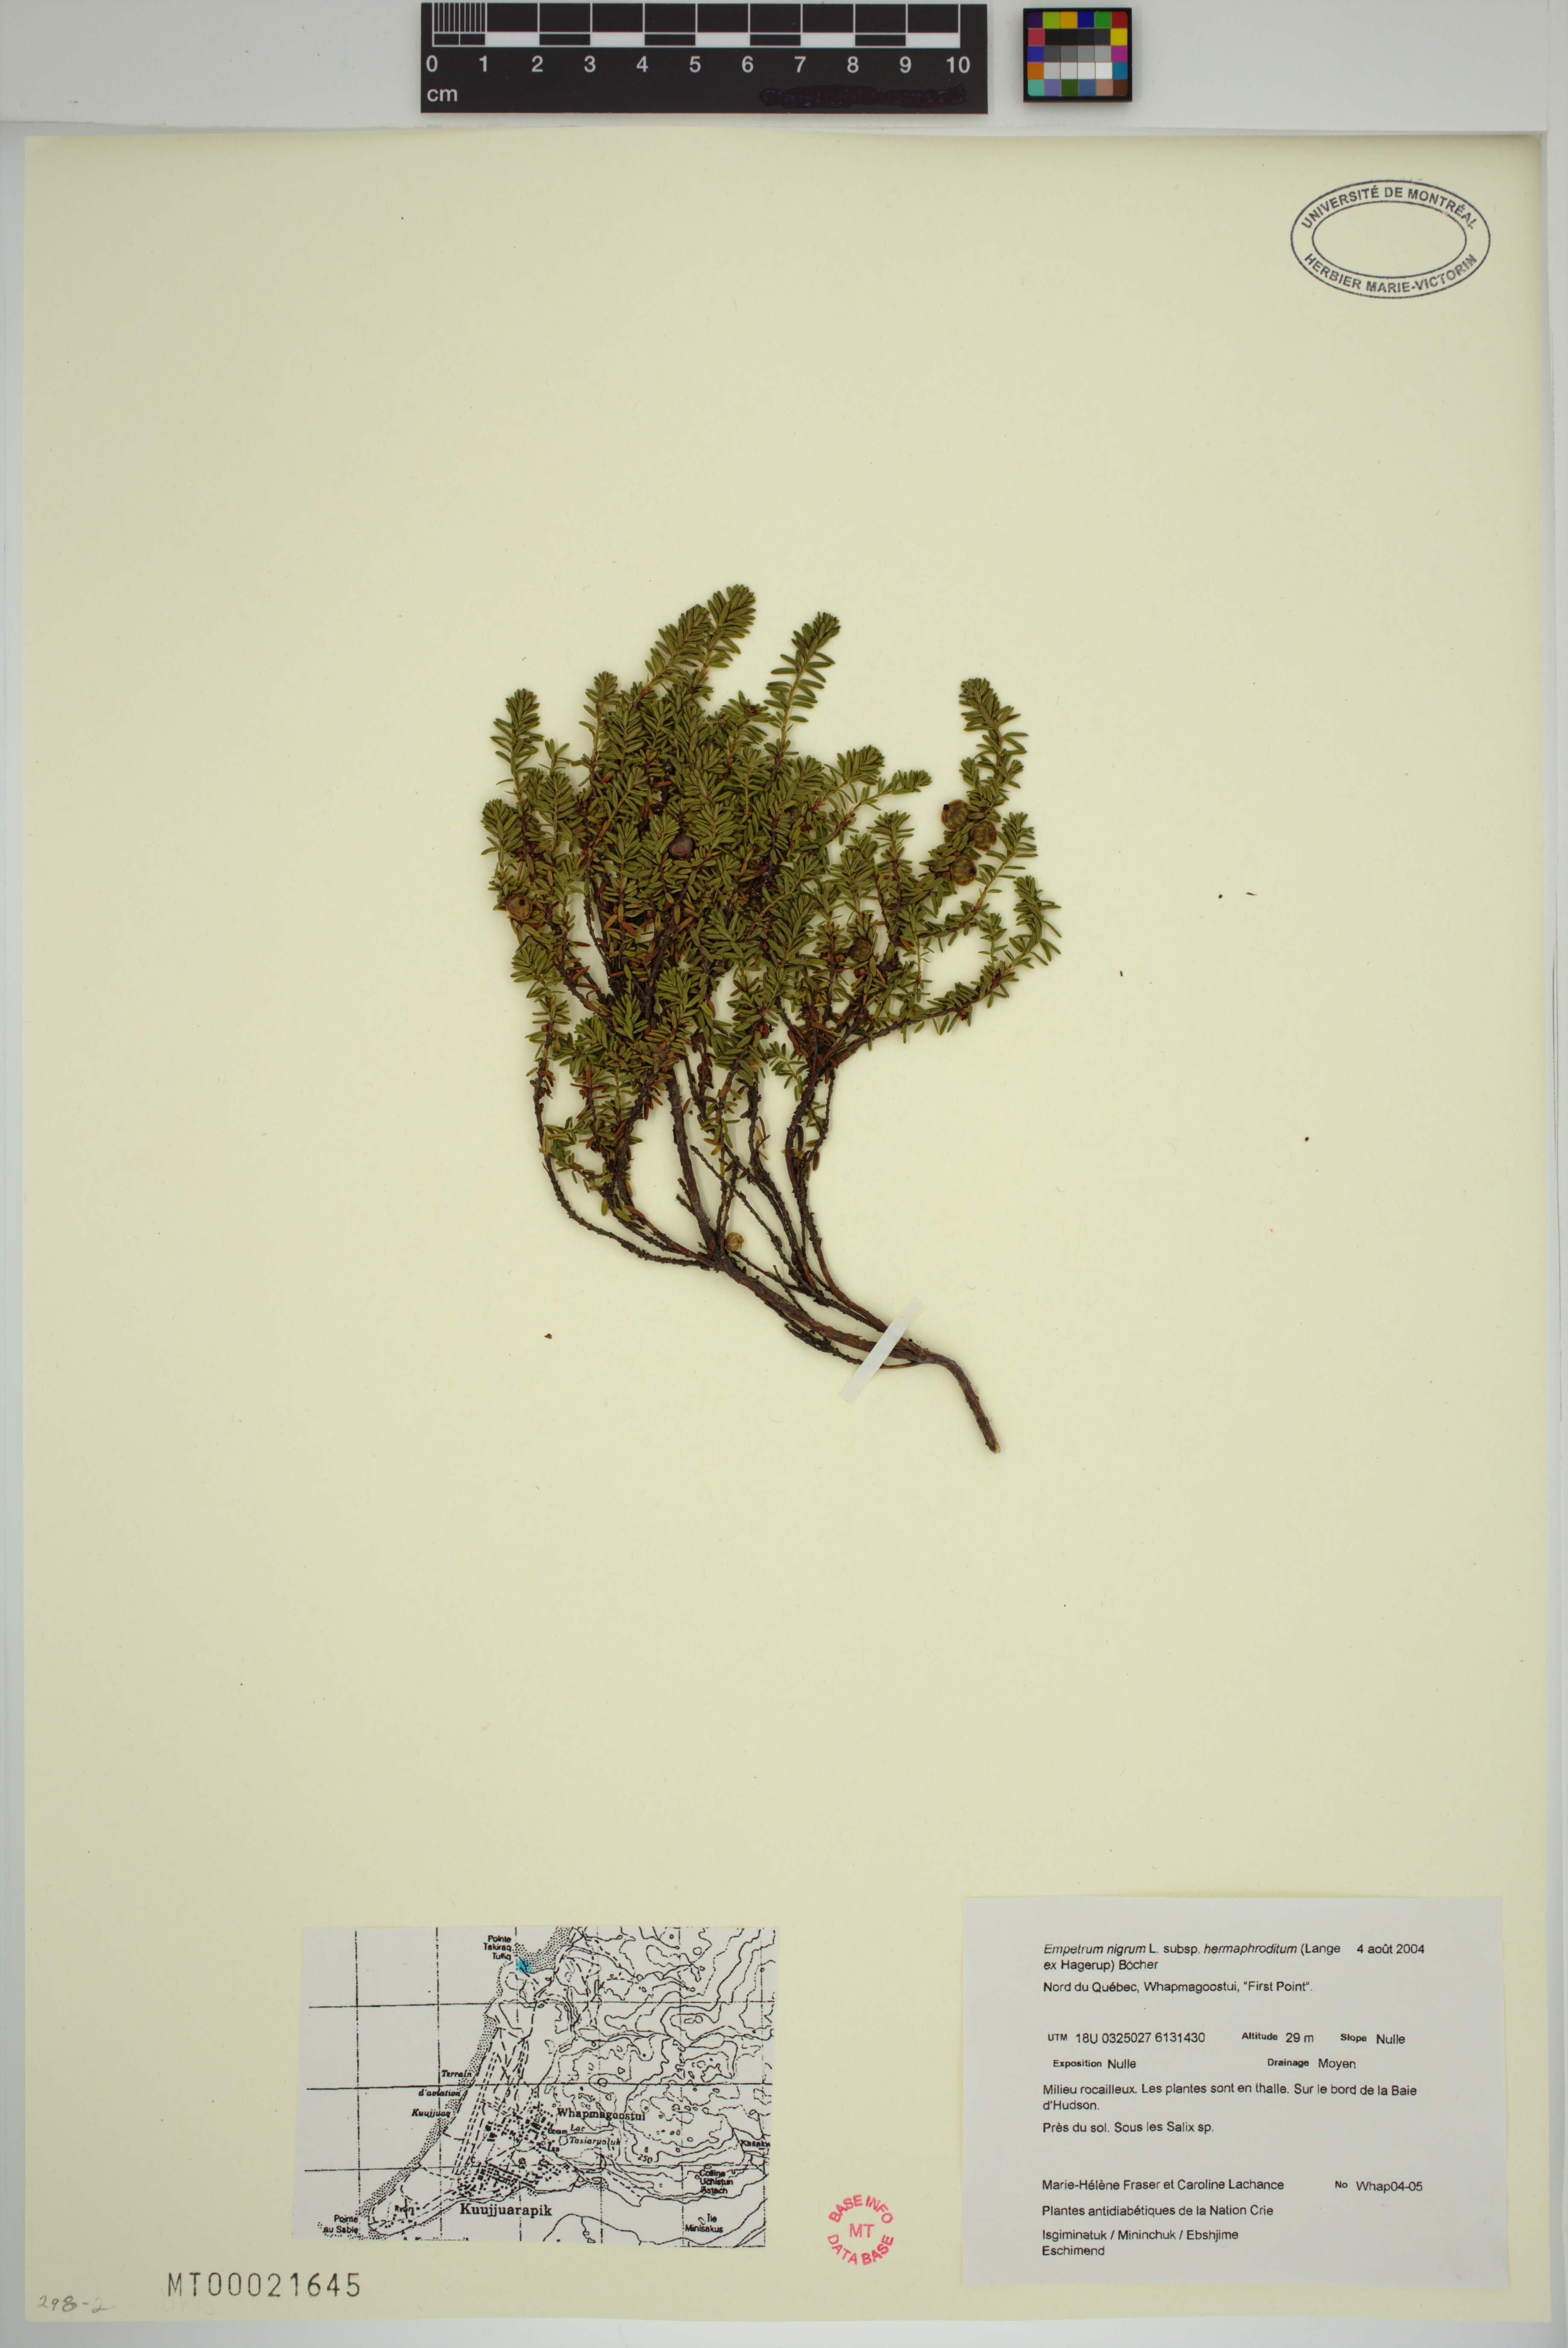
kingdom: Plantae
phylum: Tracheophyta
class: Magnoliopsida
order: Ericales
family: Ericaceae
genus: Empetrum
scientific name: Empetrum hermaphroditum
